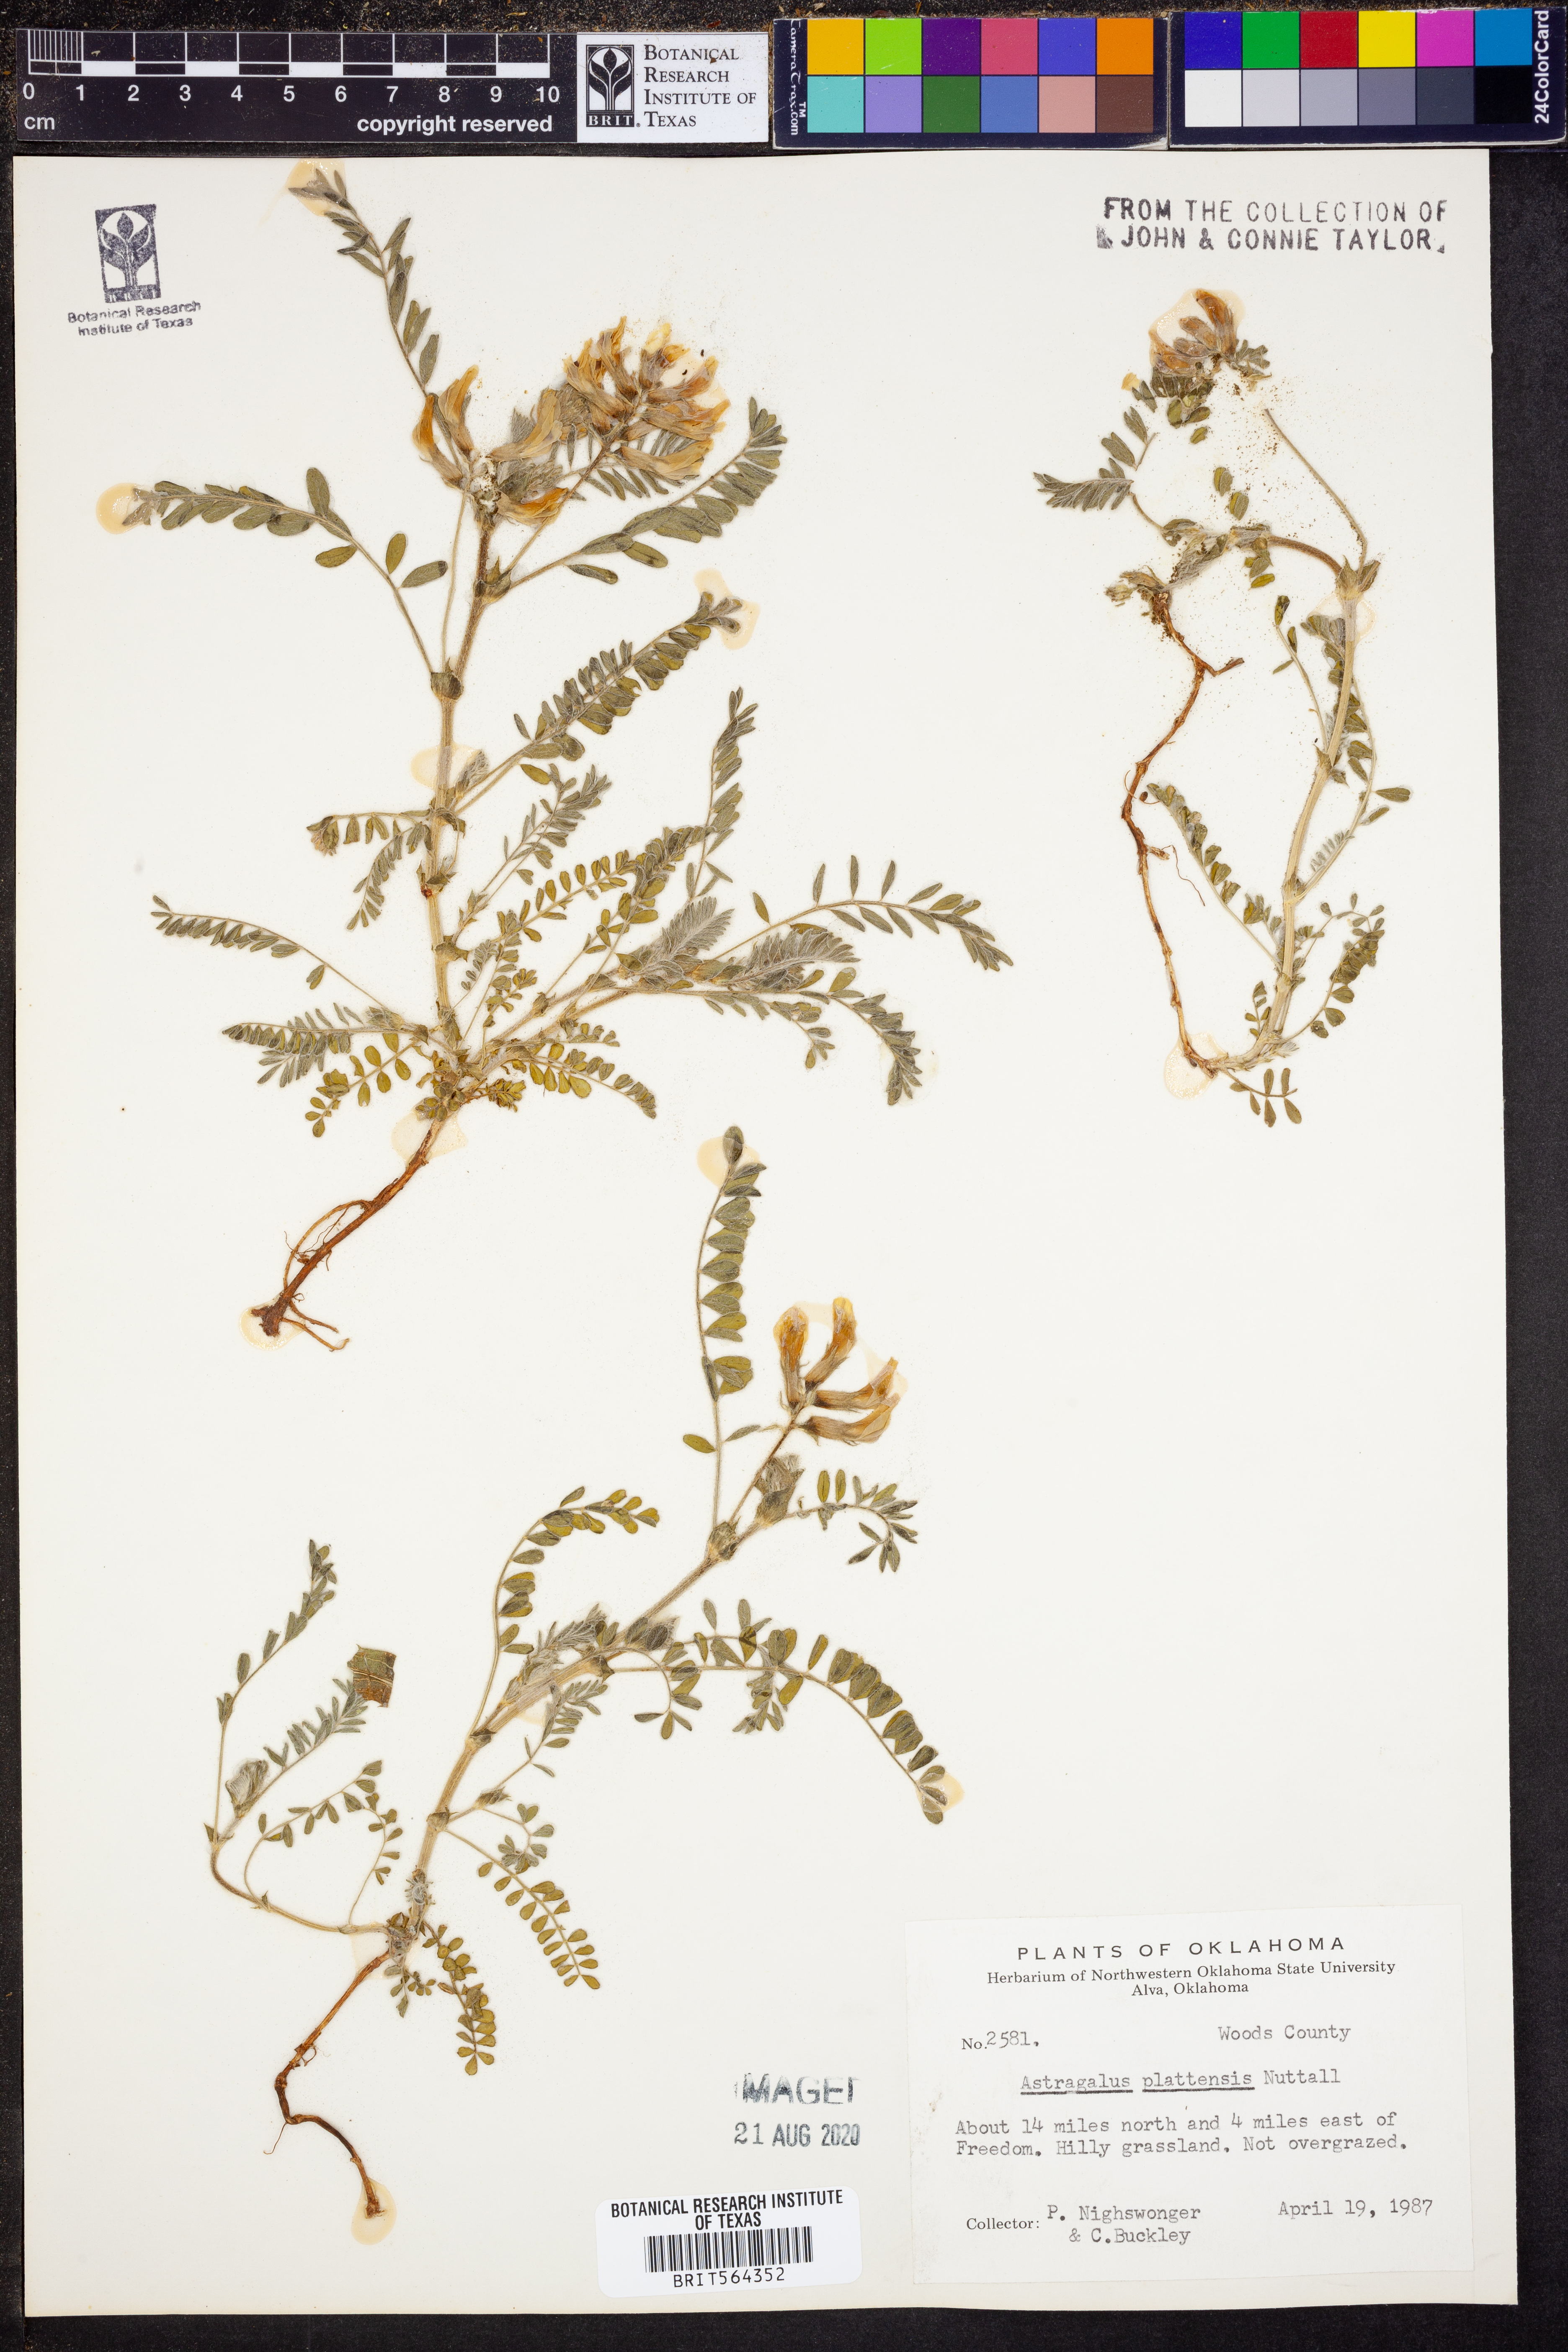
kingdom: Plantae
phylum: Tracheophyta
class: Magnoliopsida
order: Fabales
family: Fabaceae
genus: Astragalus
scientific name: Astragalus plattensis
